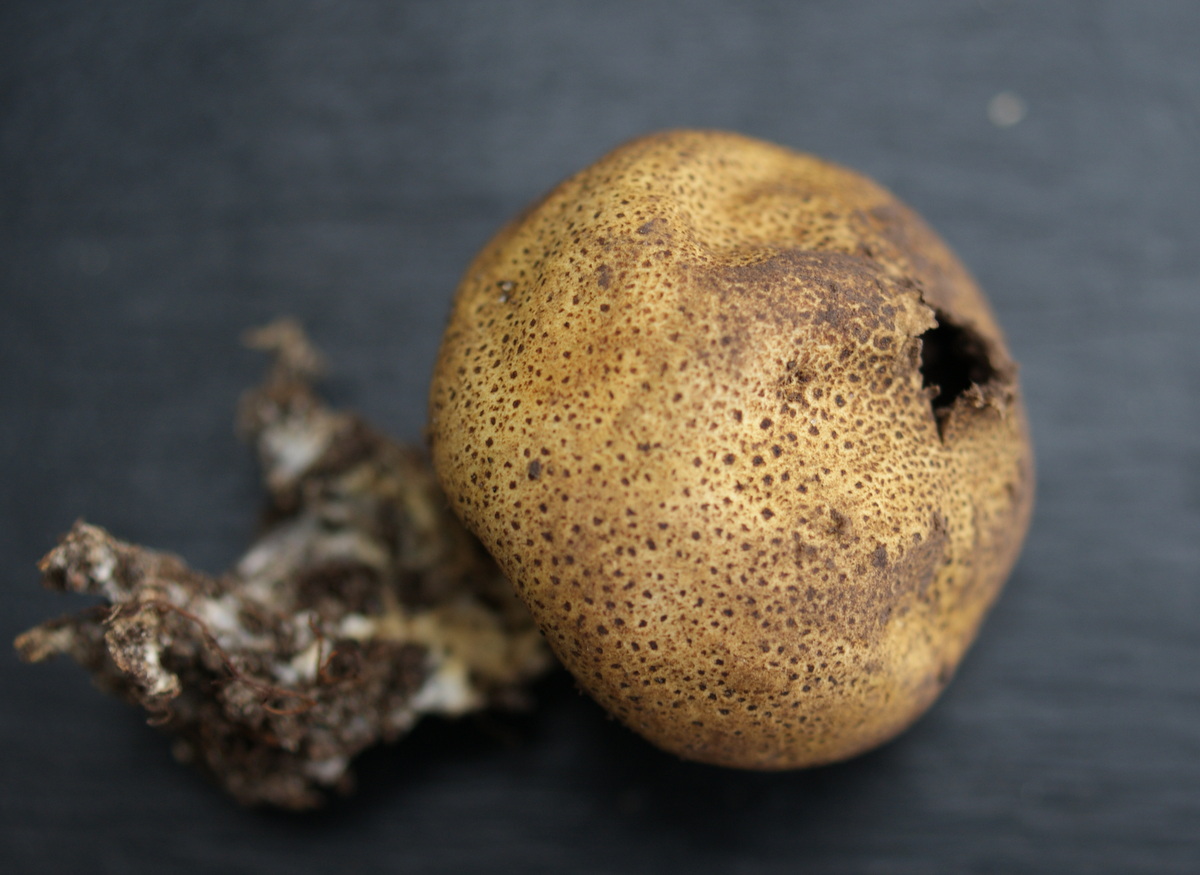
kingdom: Fungi
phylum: Basidiomycota
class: Agaricomycetes
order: Boletales
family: Sclerodermataceae
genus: Scleroderma
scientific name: Scleroderma areolatum
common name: plettet bruskbold
